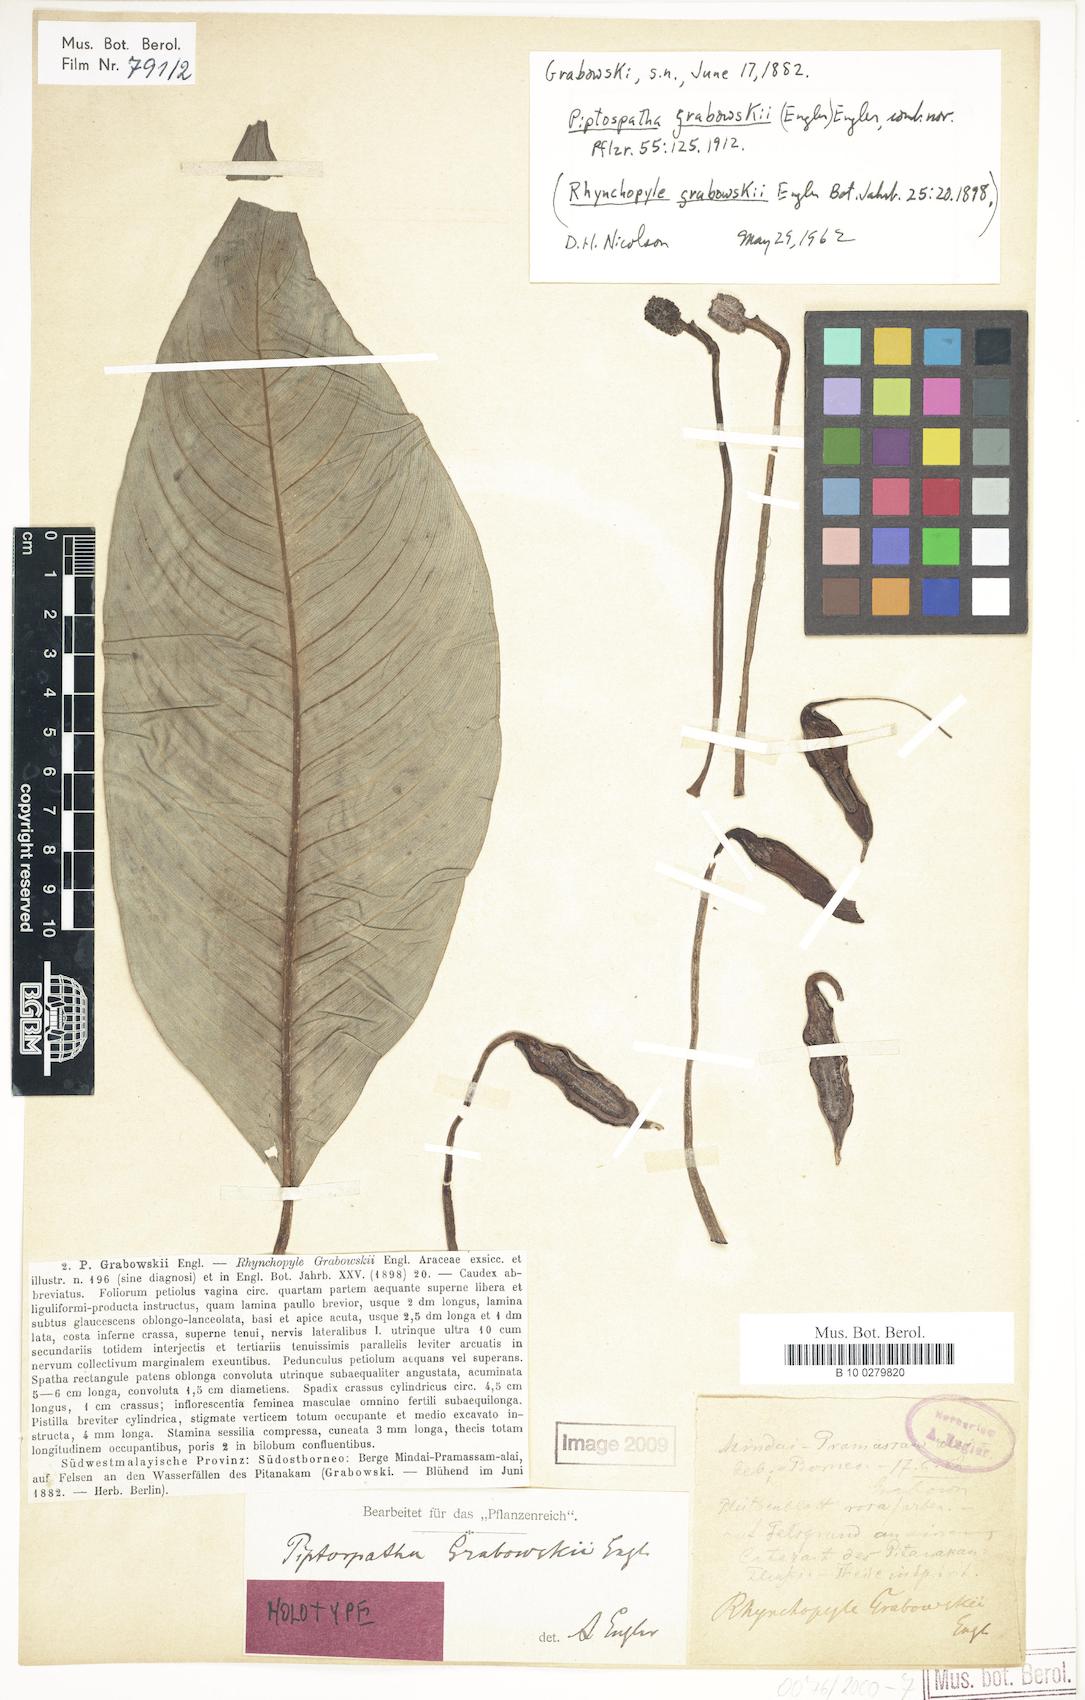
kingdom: Plantae
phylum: Tracheophyta
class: Liliopsida
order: Alismatales
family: Araceae
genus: Ooia
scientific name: Ooia grabowskii
